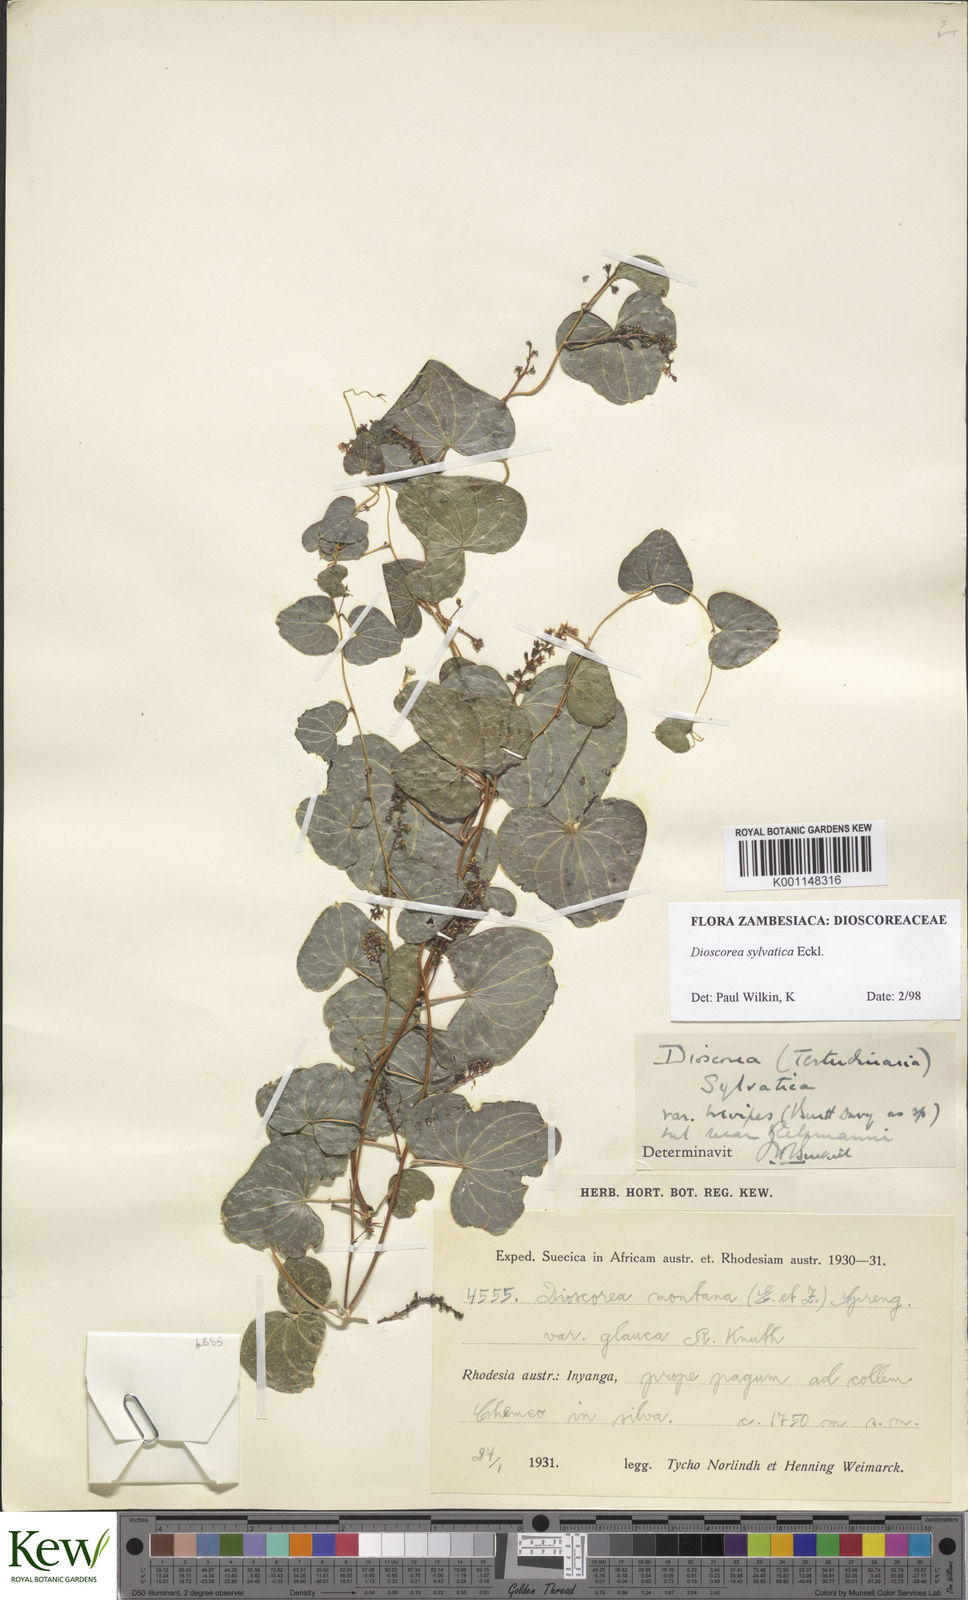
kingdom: Plantae
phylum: Tracheophyta
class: Liliopsida
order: Dioscoreales
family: Dioscoreaceae
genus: Dioscorea
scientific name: Dioscorea sylvatica
